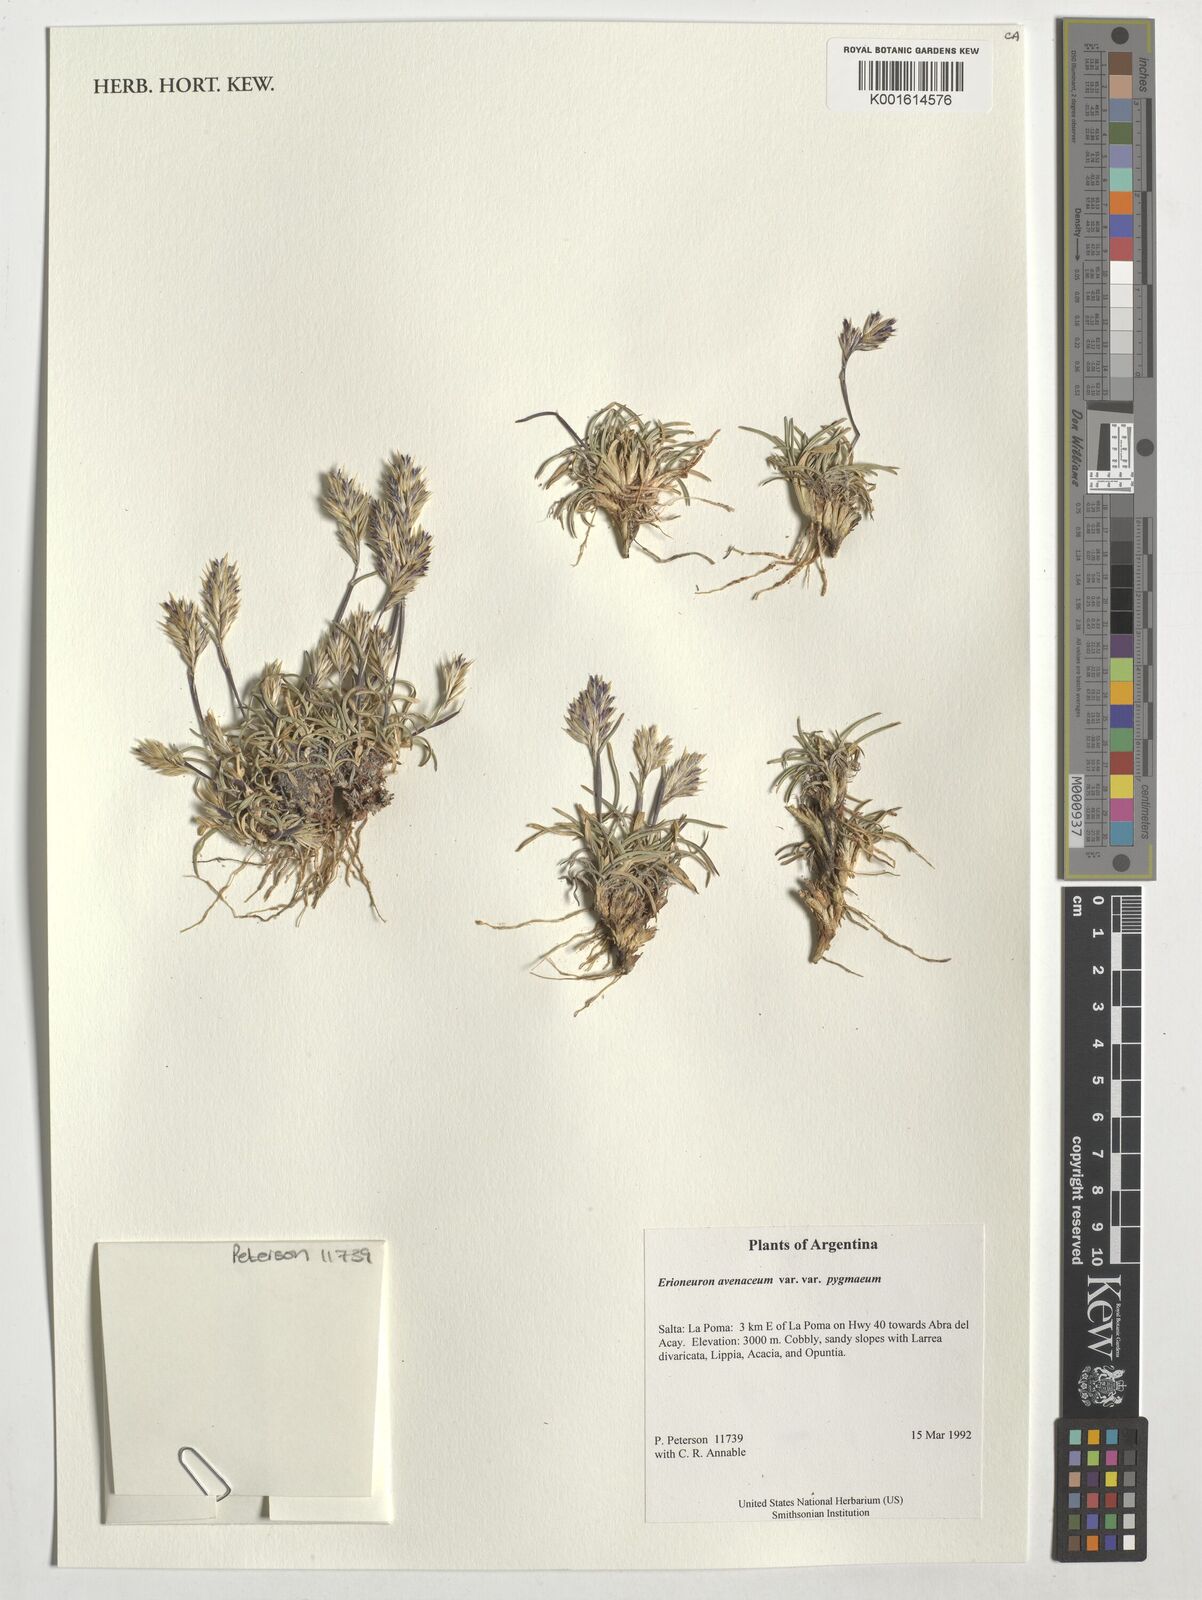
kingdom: Plantae
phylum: Tracheophyta
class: Liliopsida
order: Poales
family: Poaceae
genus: Erioneuron
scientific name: Erioneuron pilosum
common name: Hairy woolly grass
